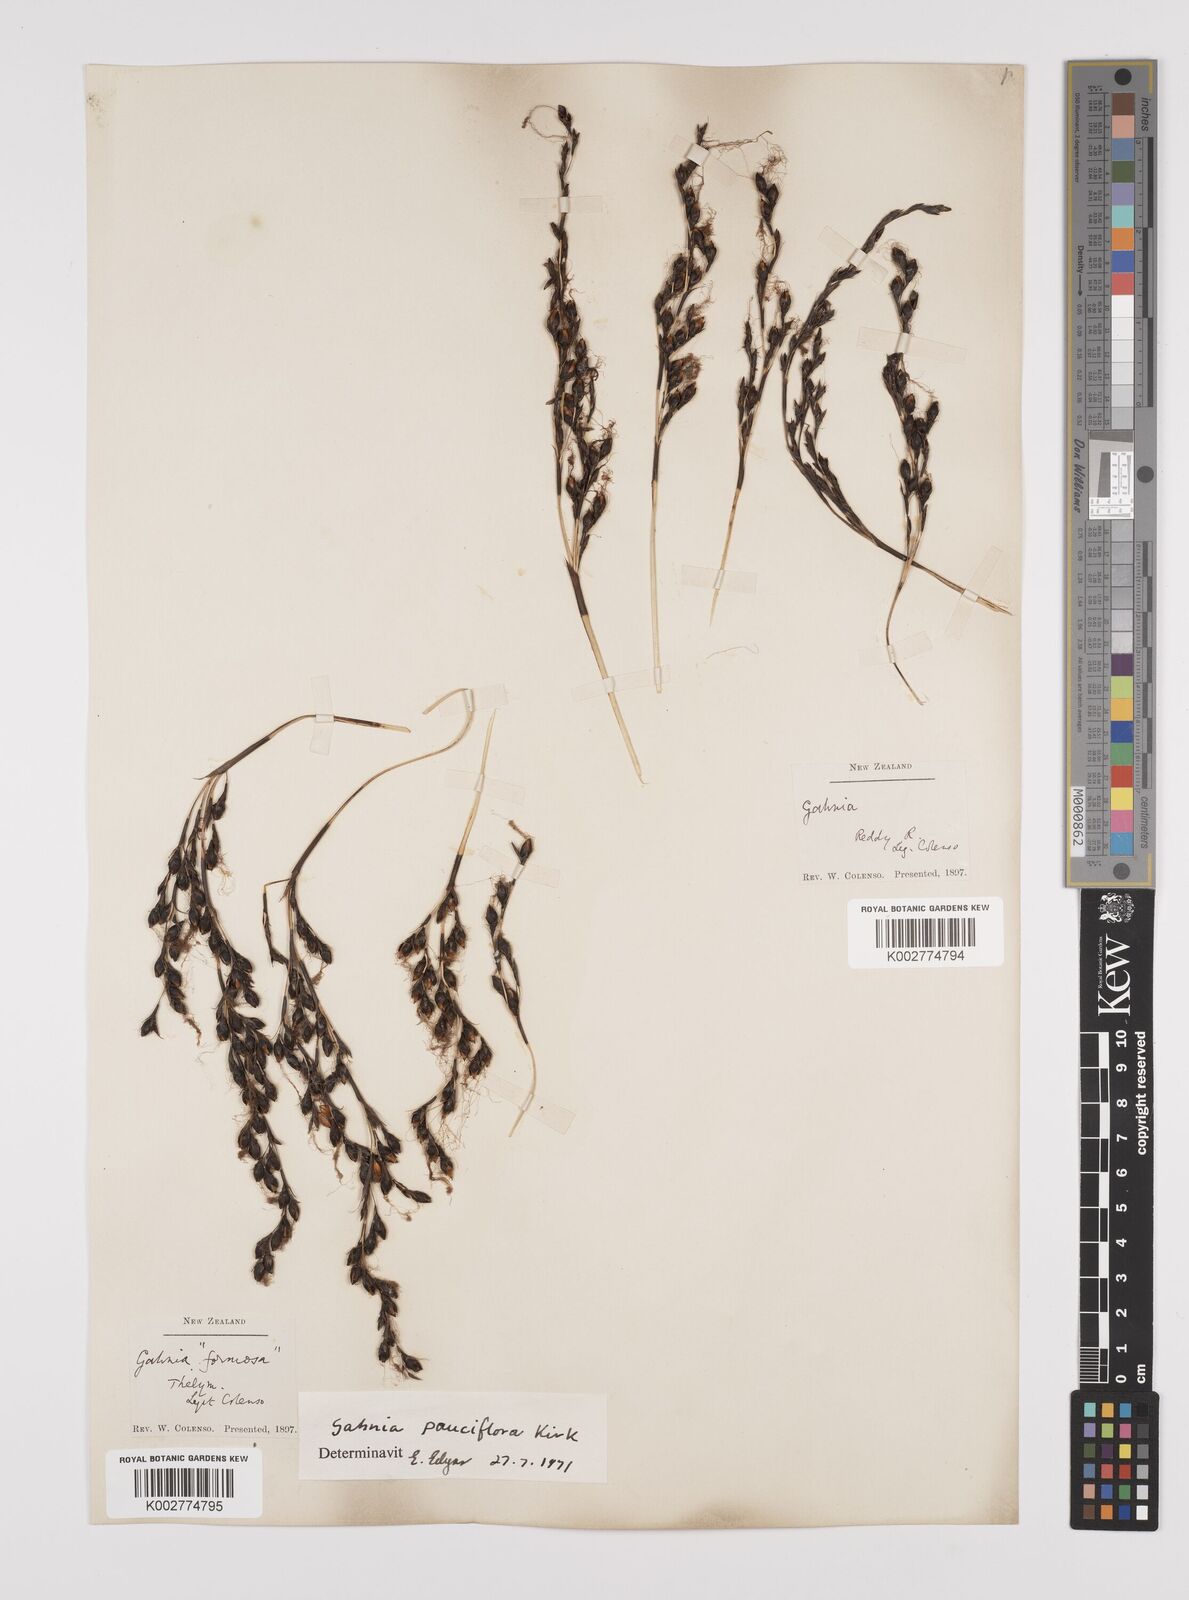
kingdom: Plantae
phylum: Tracheophyta
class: Liliopsida
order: Poales
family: Cyperaceae
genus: Gahnia
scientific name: Gahnia pauciflora
